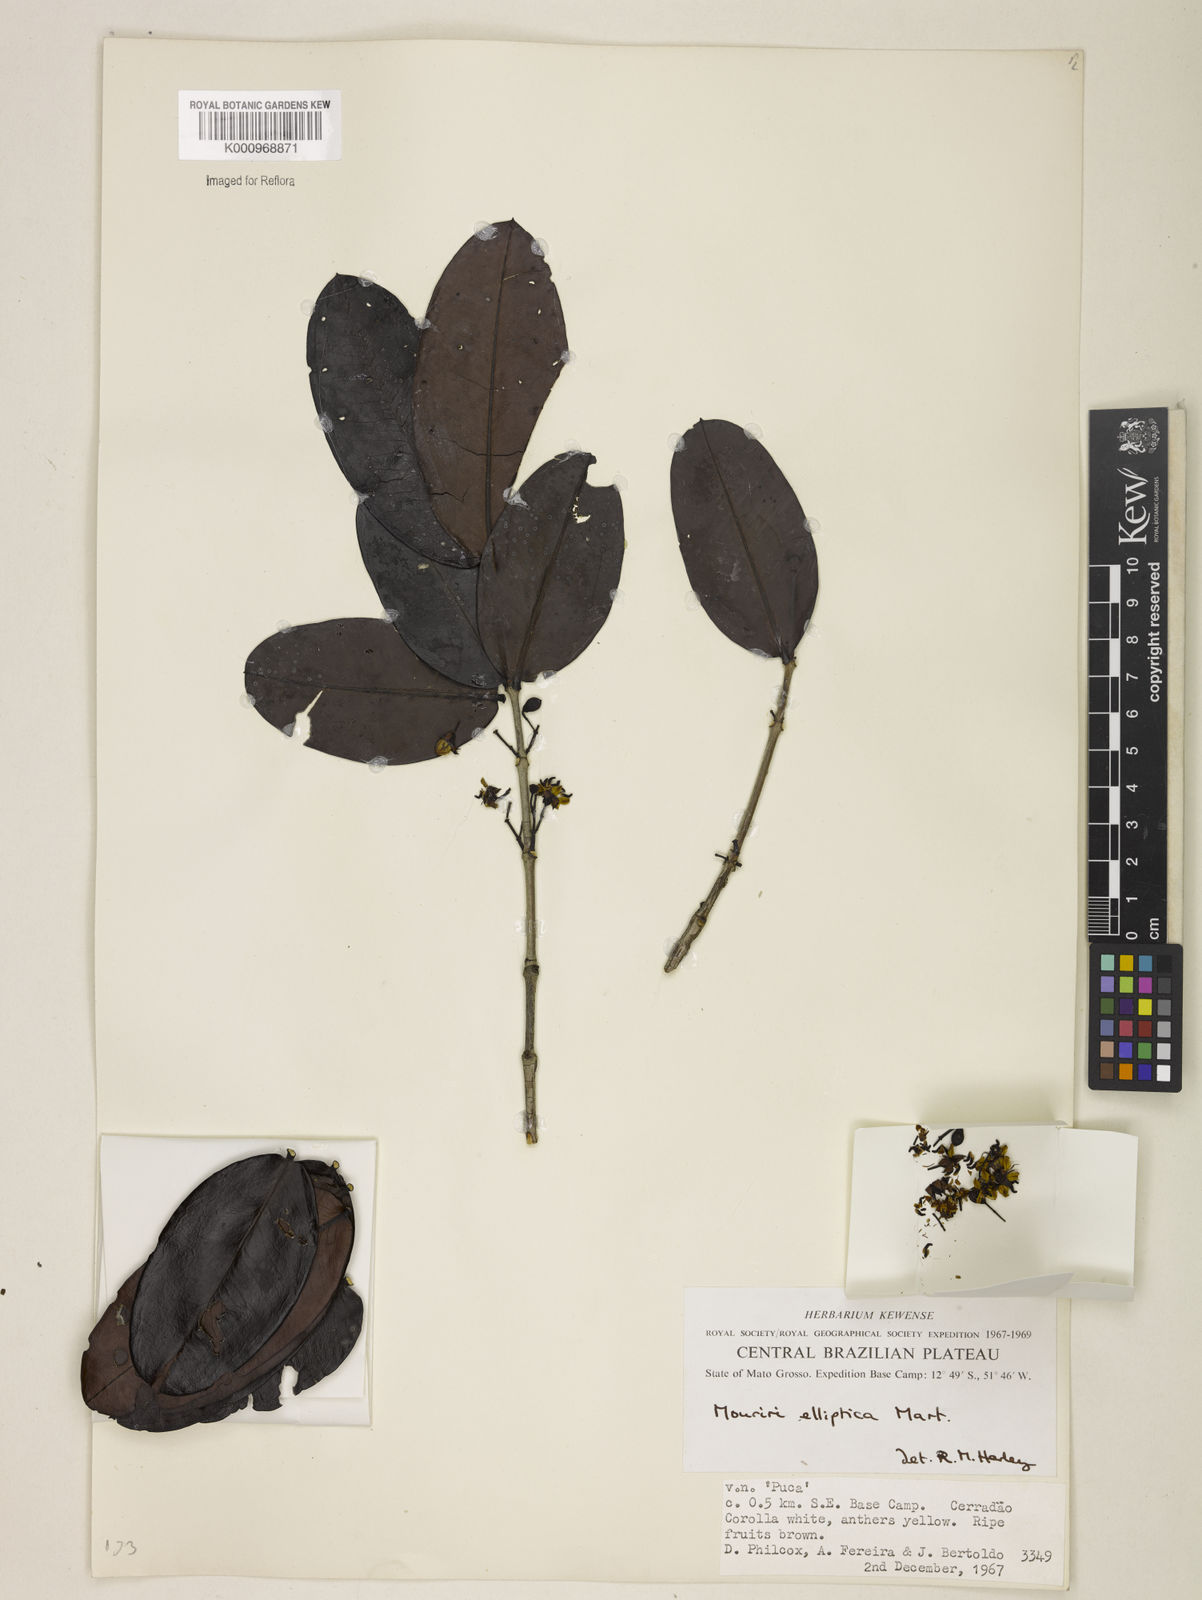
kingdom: Plantae
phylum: Tracheophyta
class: Magnoliopsida
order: Myrtales
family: Melastomataceae
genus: Mouriri
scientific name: Mouriri elliptica
